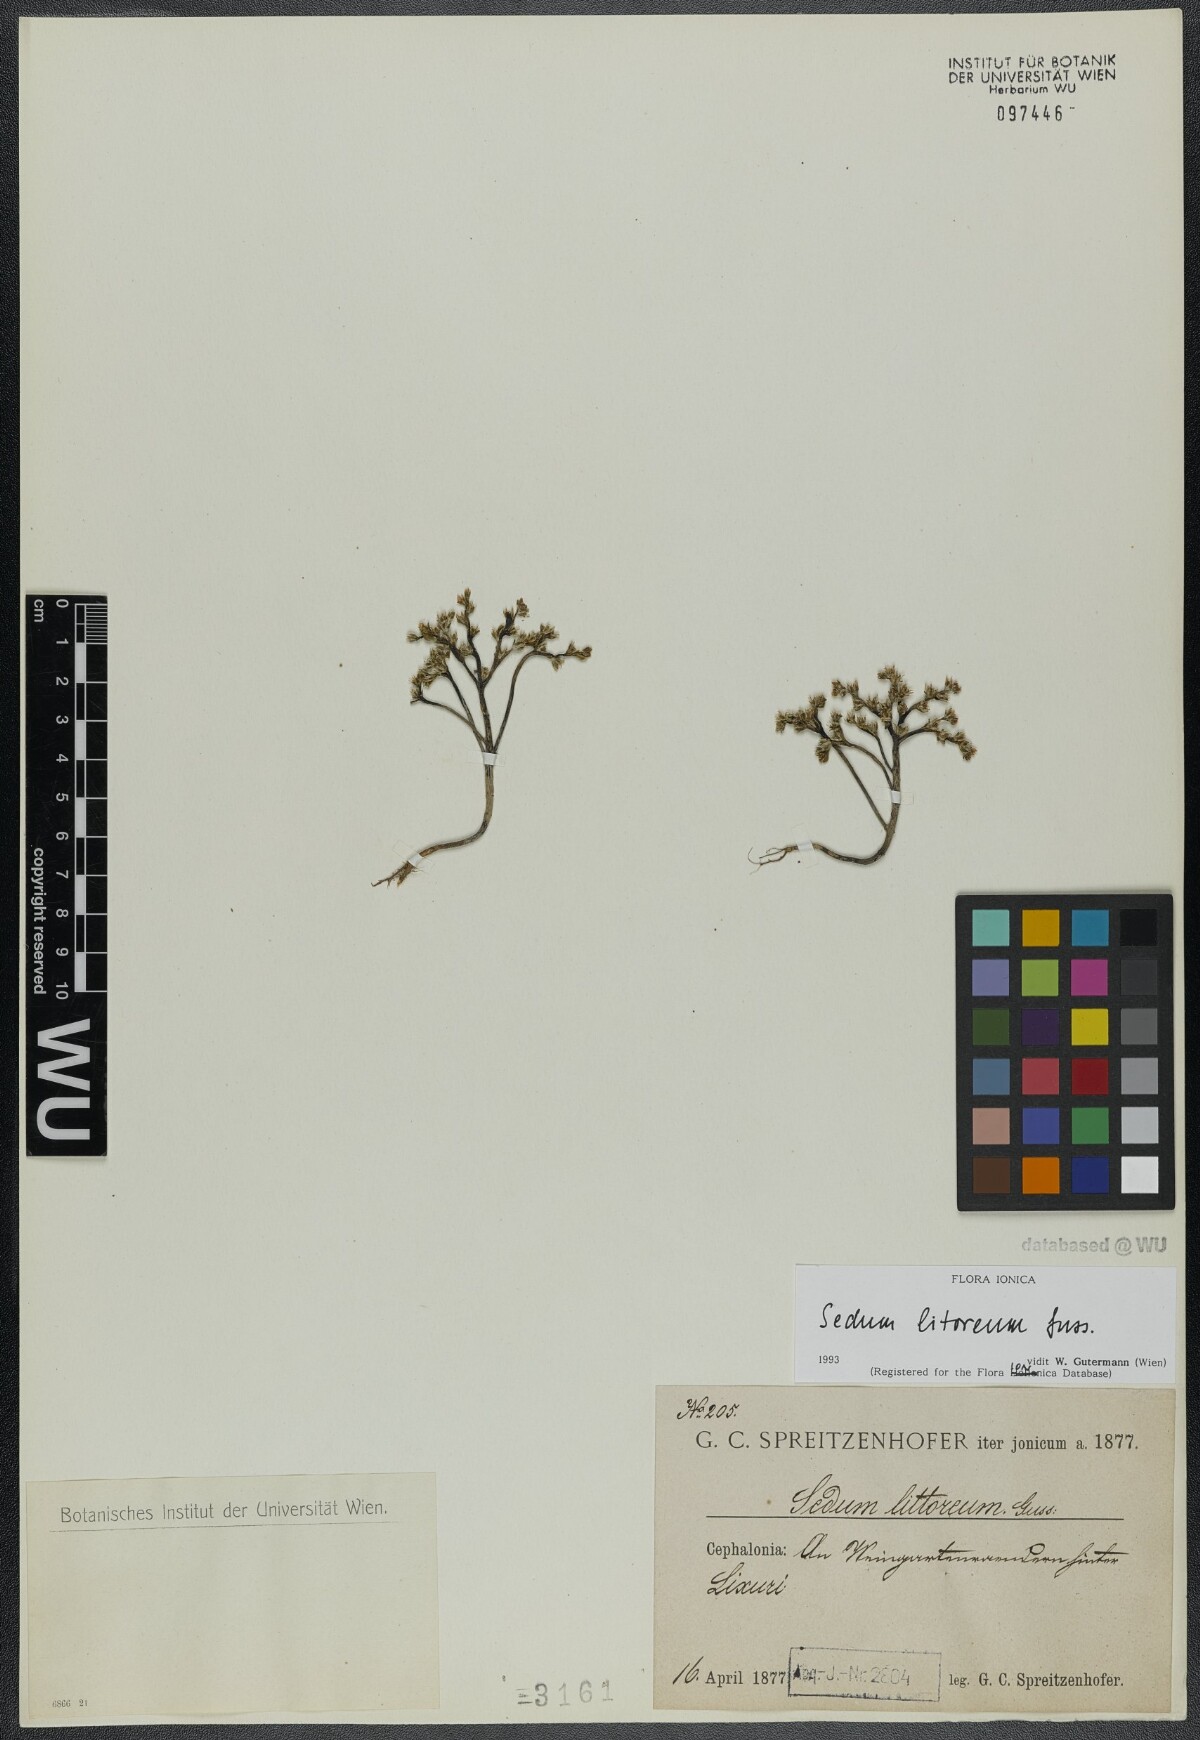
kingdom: Plantae
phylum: Tracheophyta
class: Magnoliopsida
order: Saxifragales
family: Crassulaceae
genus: Sedum
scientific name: Sedum litoreum
